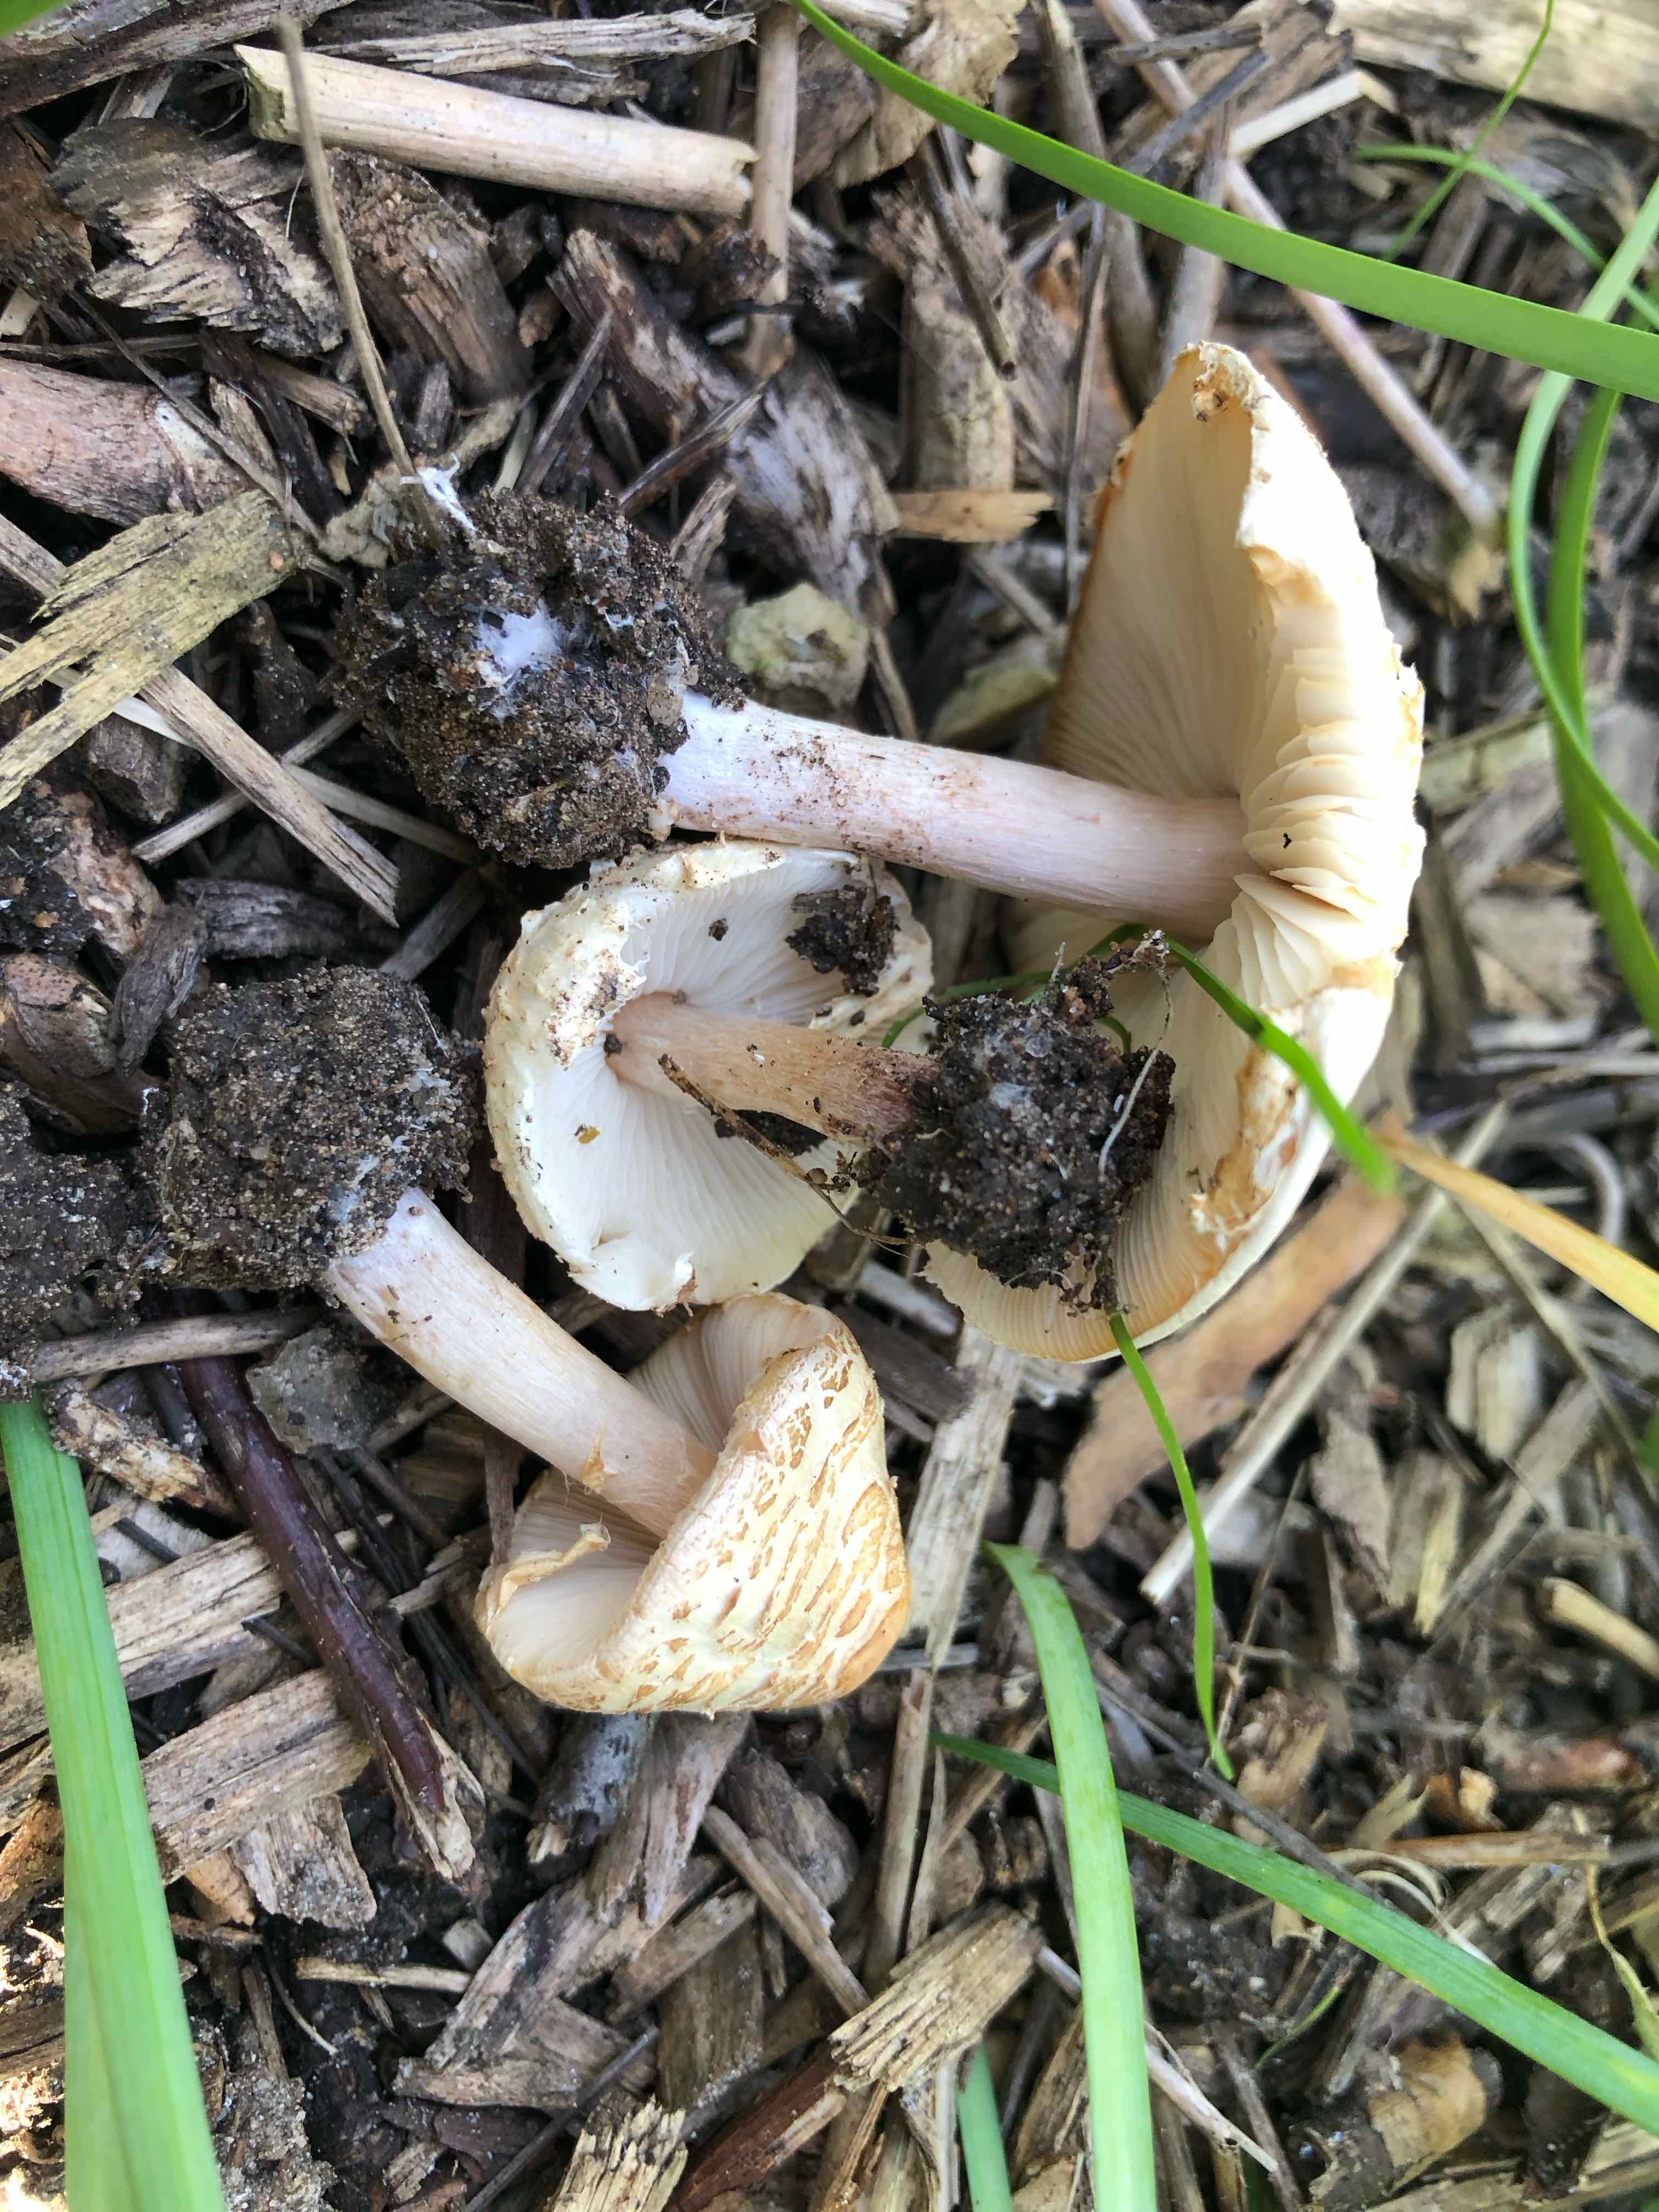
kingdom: Fungi
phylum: Basidiomycota
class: Agaricomycetes
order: Agaricales
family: Agaricaceae
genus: Lepiota
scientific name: Lepiota cristata
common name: stinkende parasolhat
